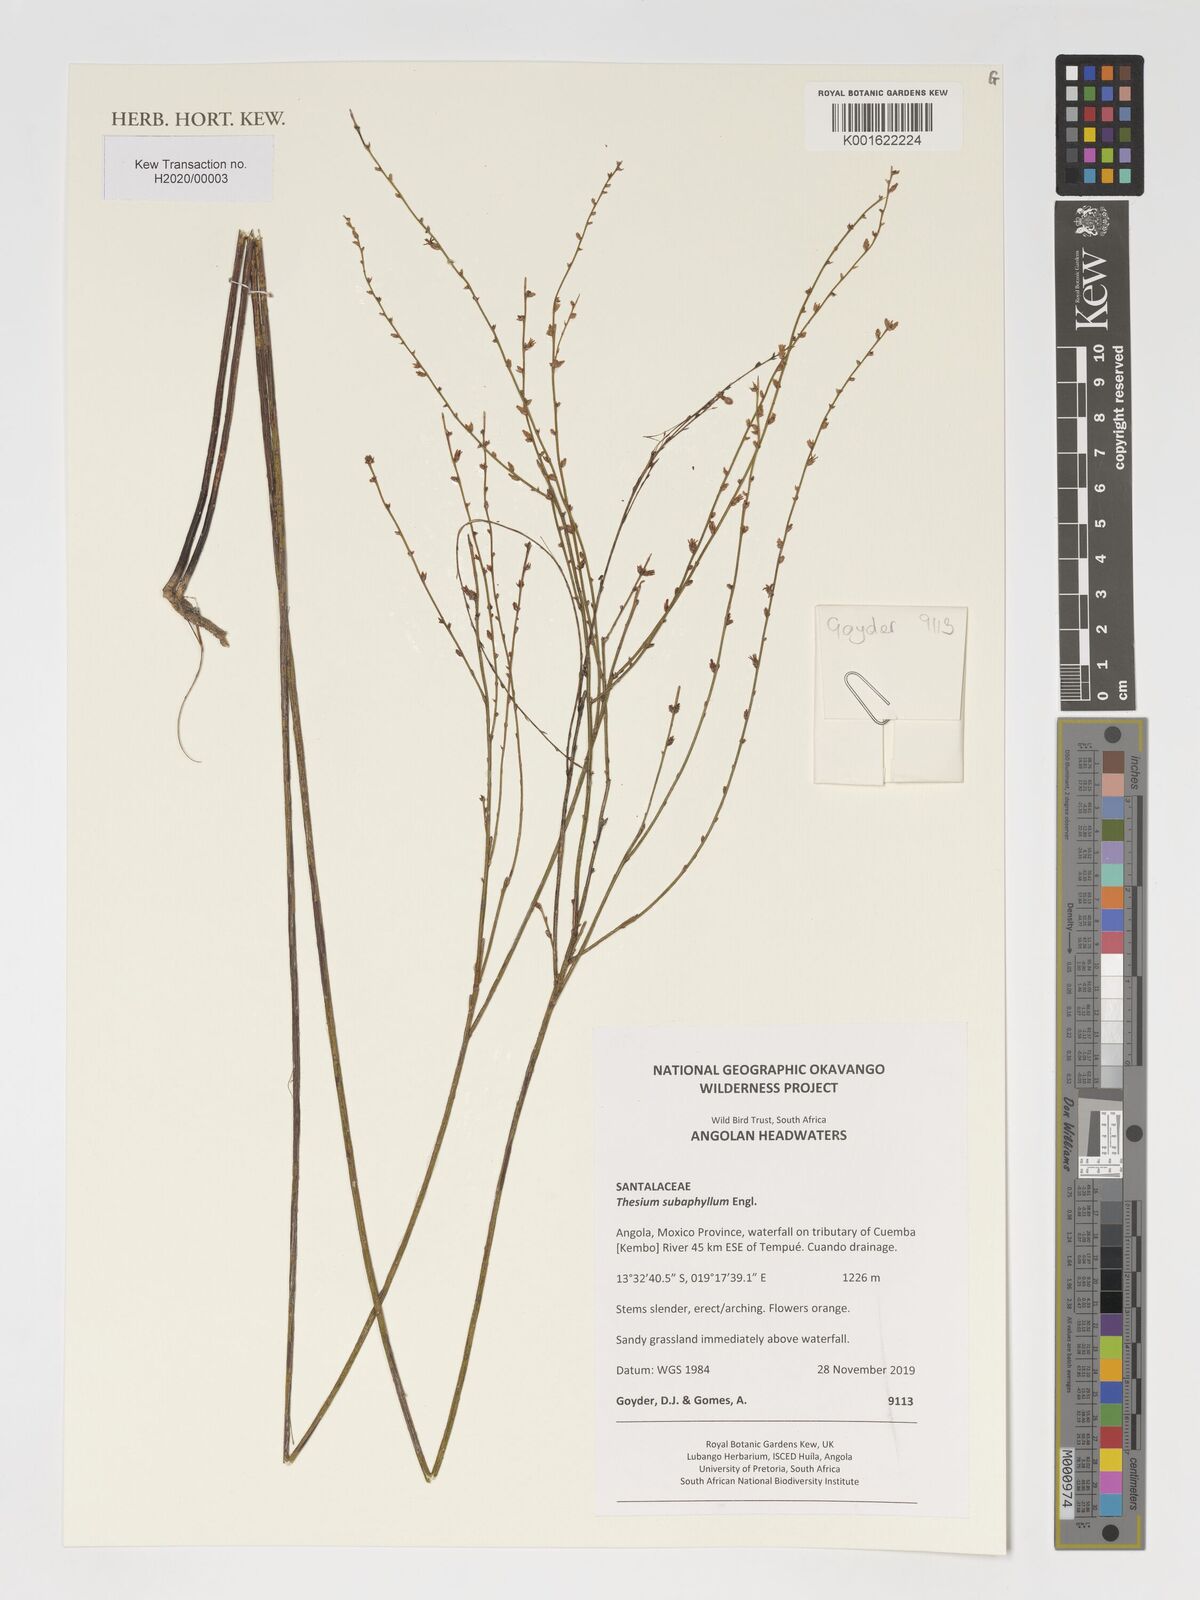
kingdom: Plantae
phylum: Tracheophyta
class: Magnoliopsida
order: Santalales
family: Thesiaceae
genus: Thesium
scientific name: Thesium subaphyllum
